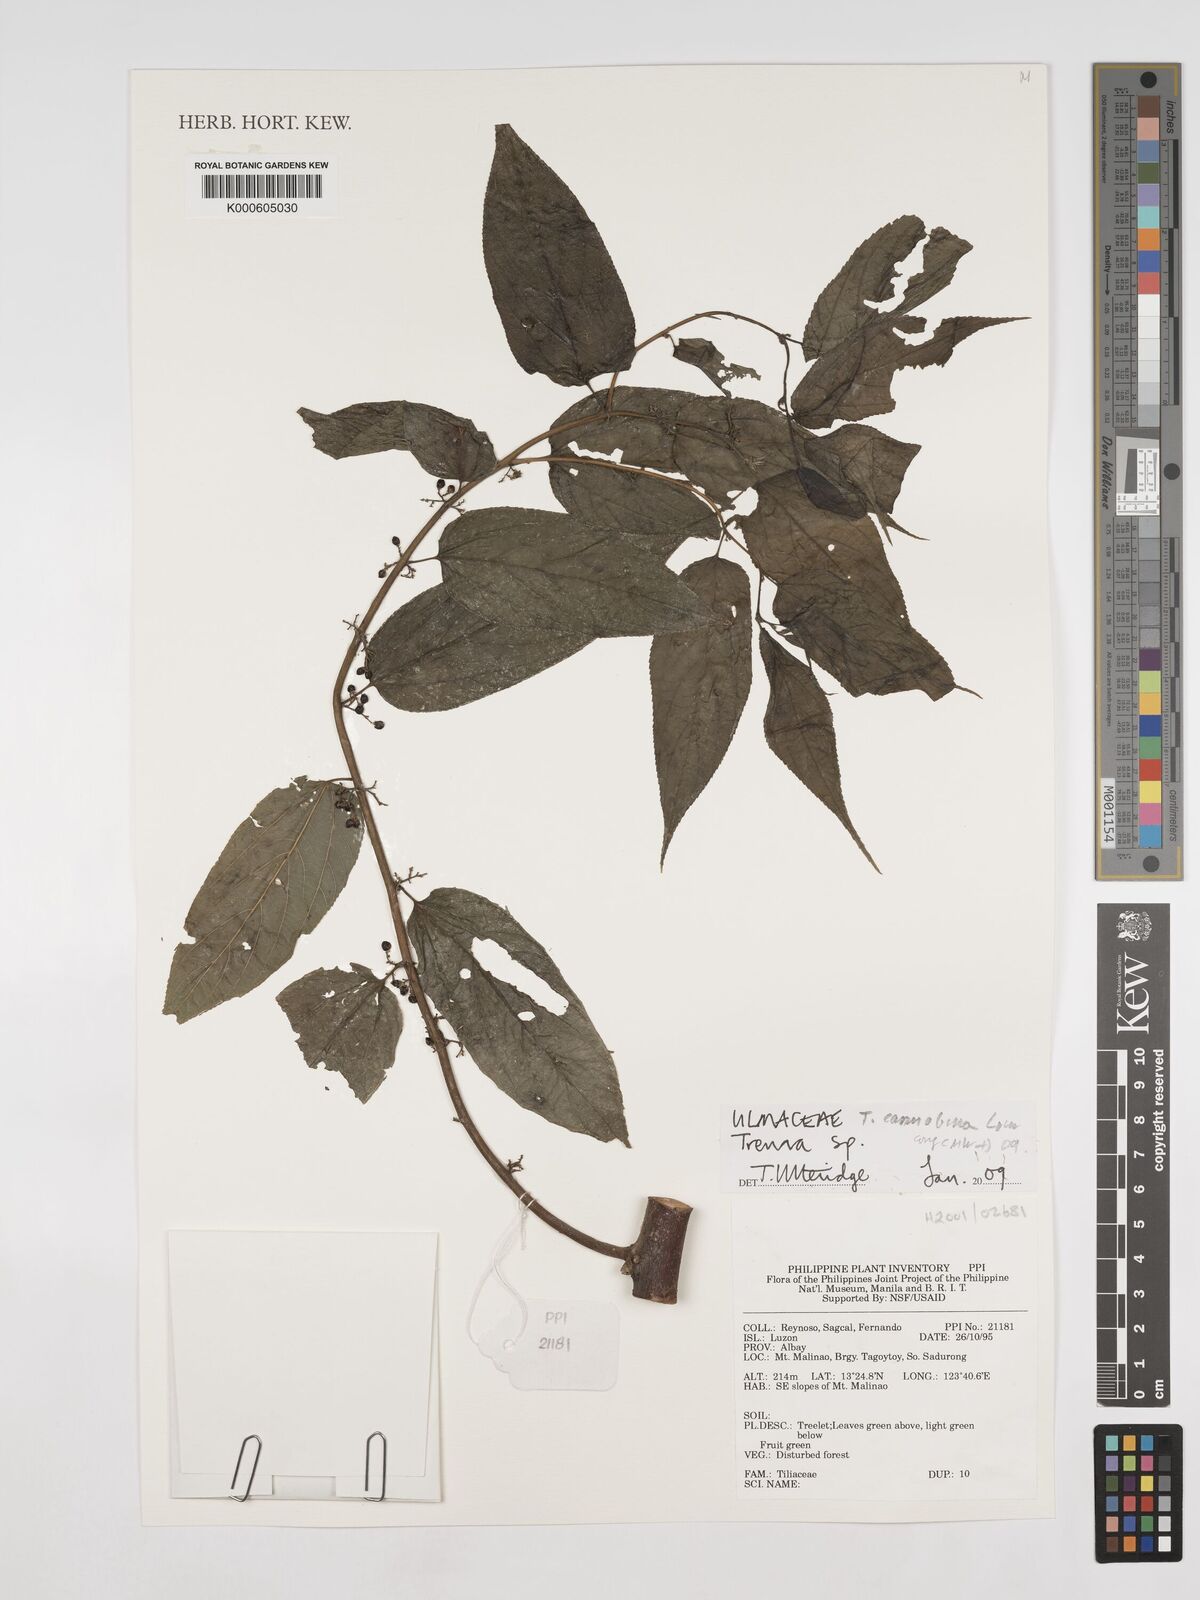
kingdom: Plantae
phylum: Tracheophyta
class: Magnoliopsida
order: Rosales
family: Cannabaceae
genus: Trema
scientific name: Trema
